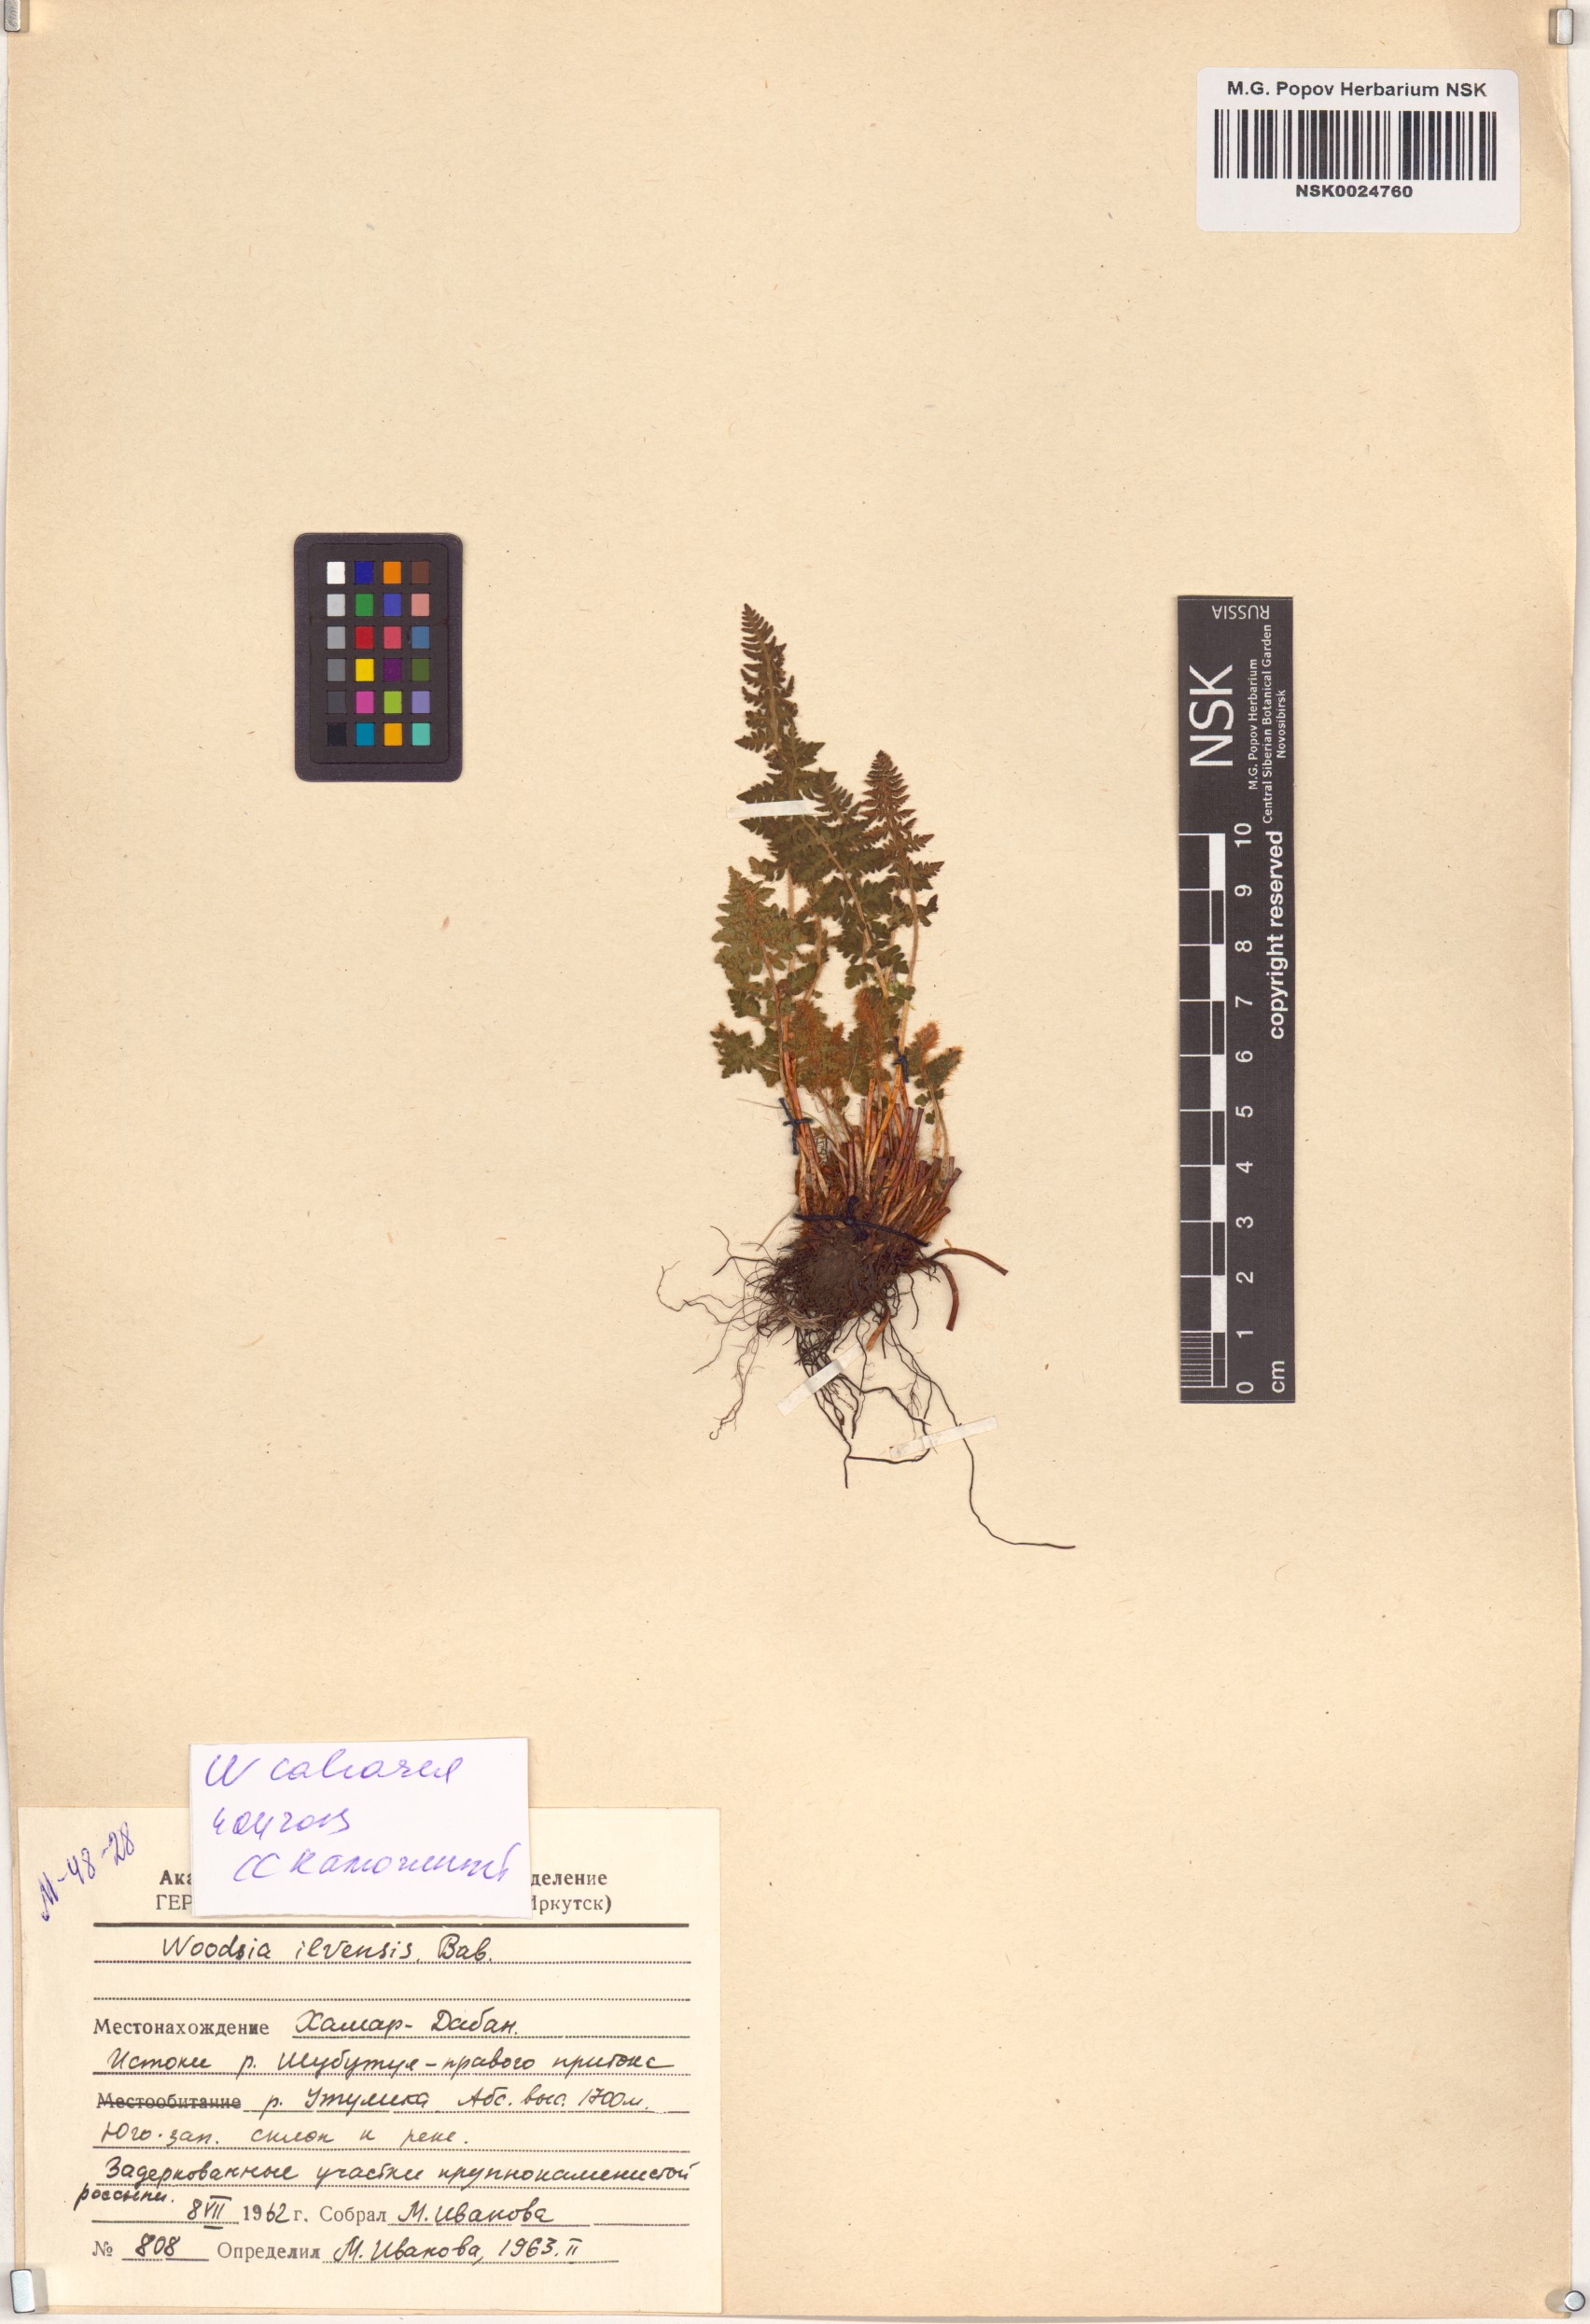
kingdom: Plantae
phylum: Tracheophyta
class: Polypodiopsida
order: Polypodiales
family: Woodsiaceae
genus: Woodsia
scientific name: Woodsia calcarea
